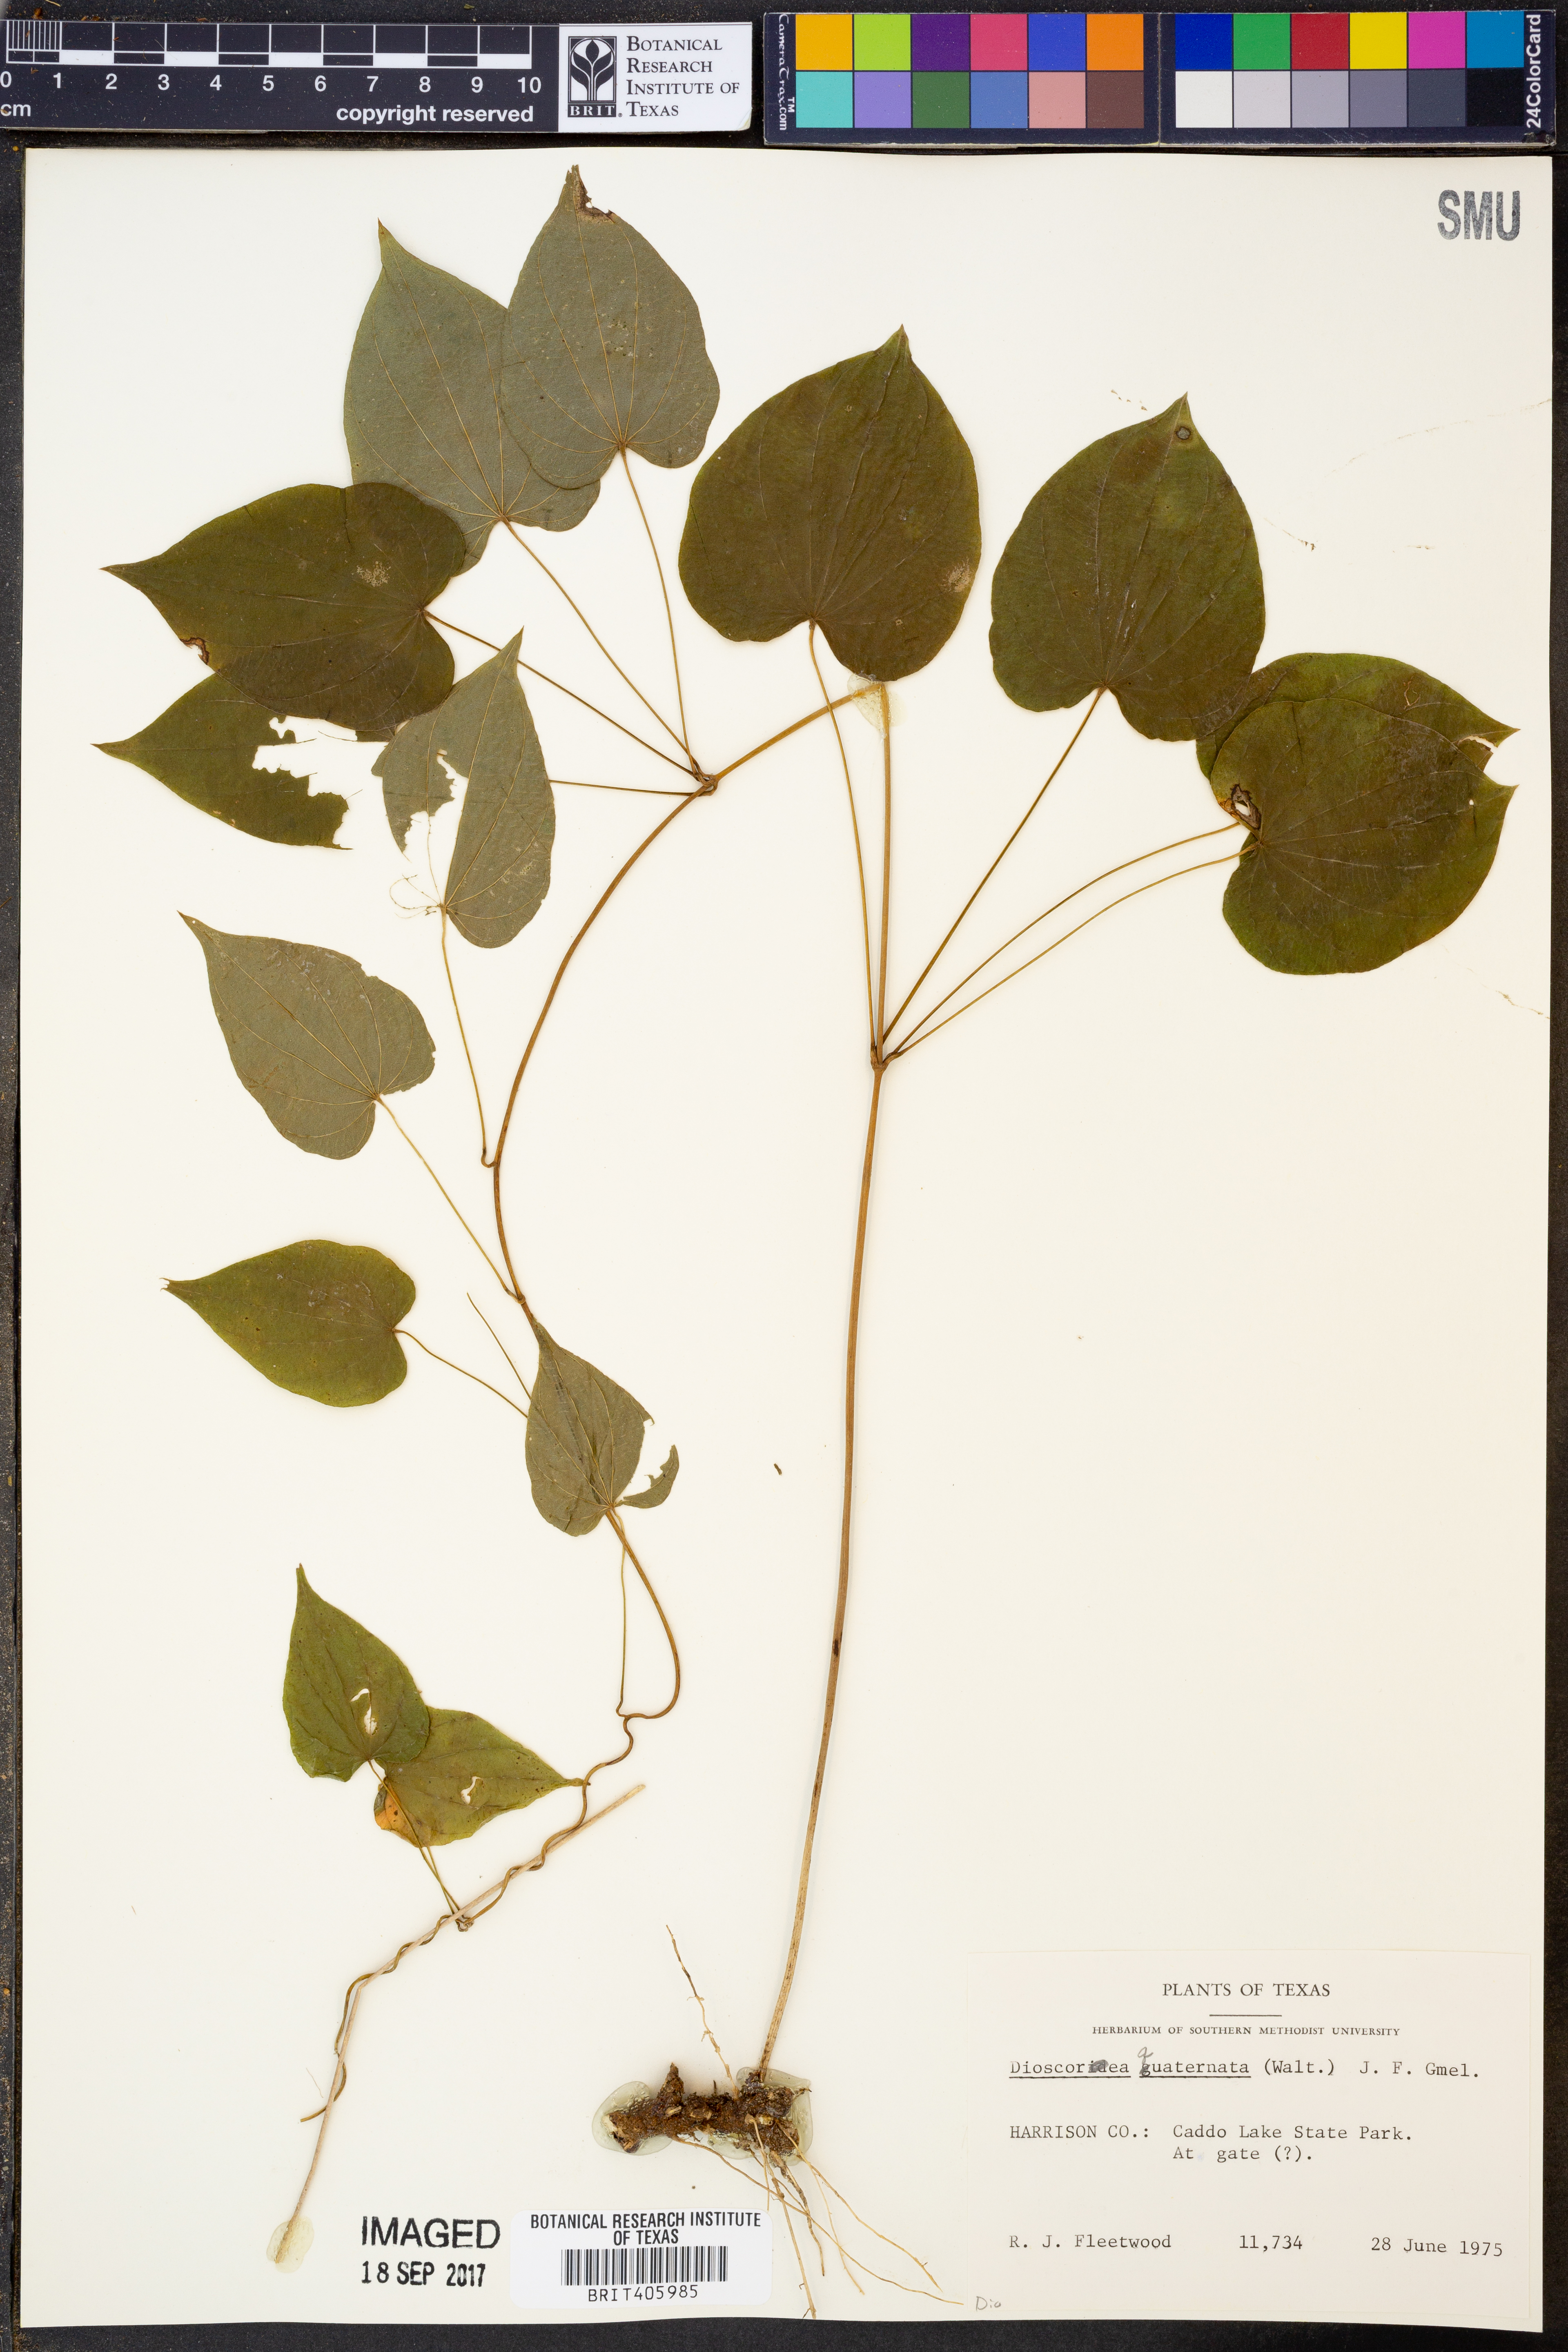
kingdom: Plantae
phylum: Tracheophyta
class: Liliopsida
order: Dioscoreales
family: Dioscoreaceae
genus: Dioscorea
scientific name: Dioscorea quaternata
